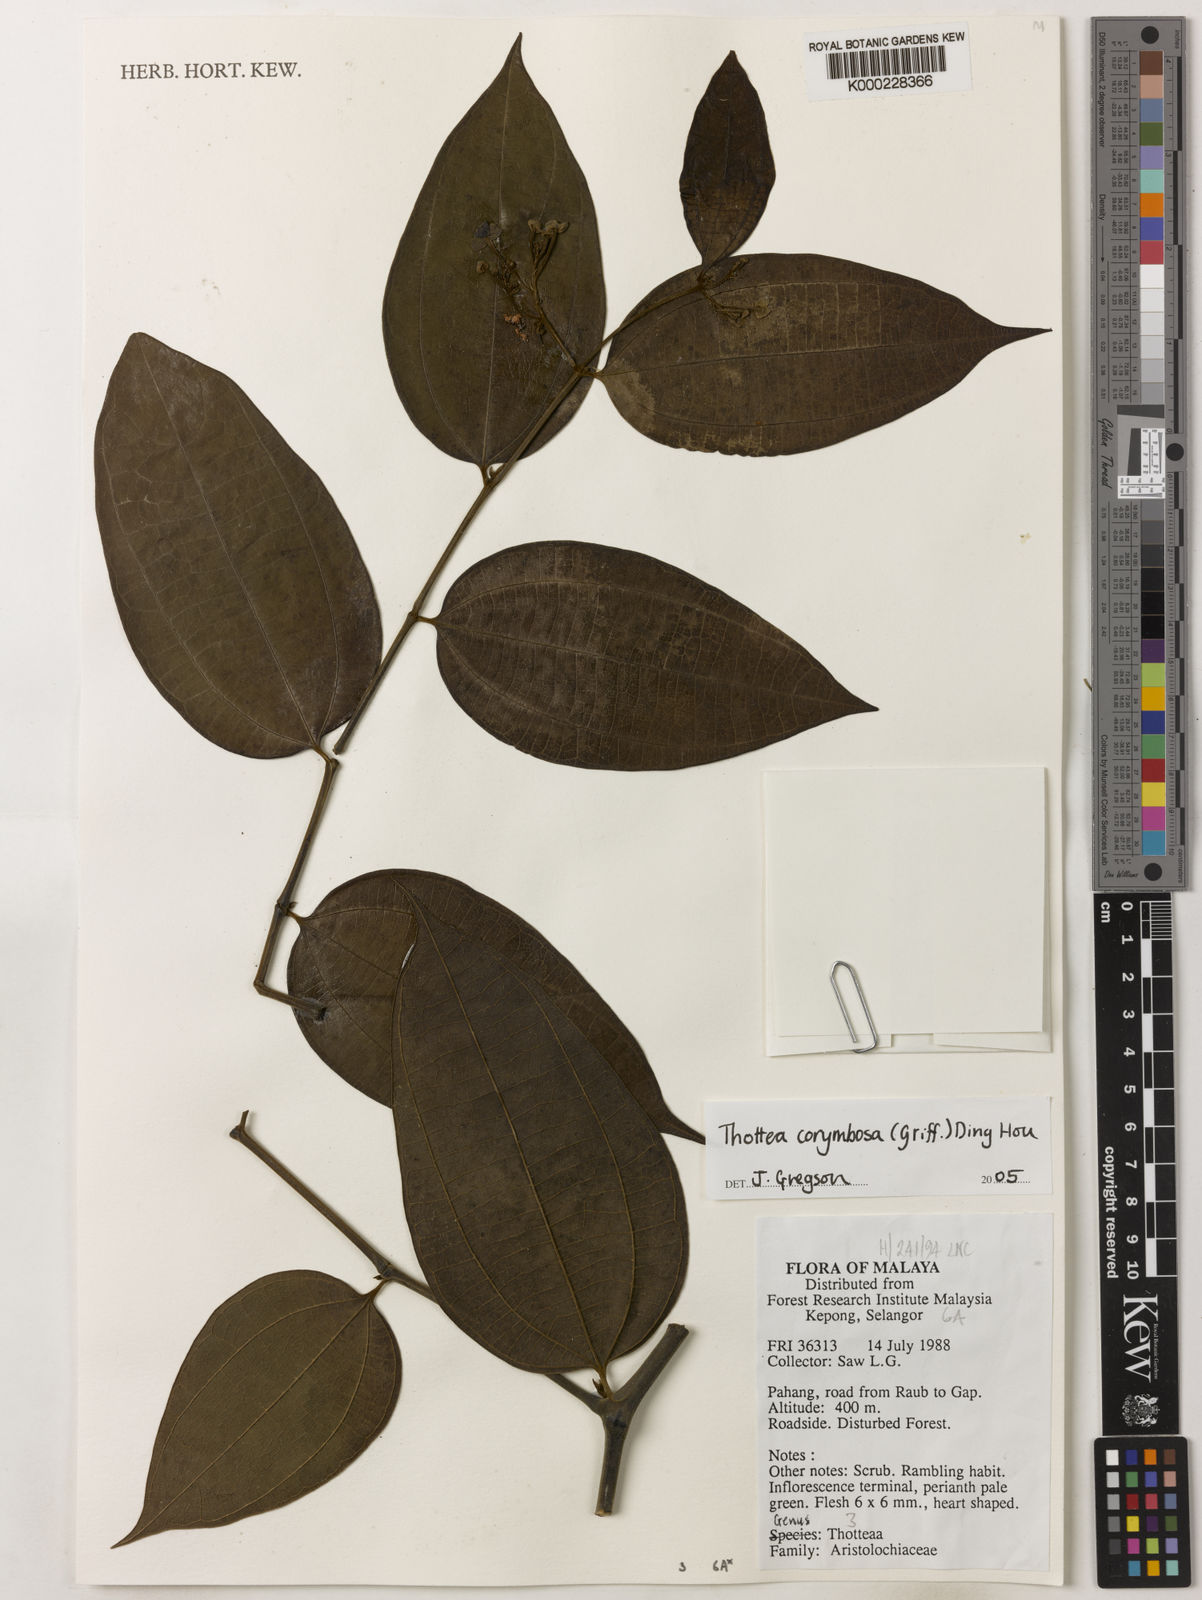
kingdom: Plantae
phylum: Tracheophyta
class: Magnoliopsida
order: Piperales
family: Aristolochiaceae
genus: Thottea
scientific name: Thottea
